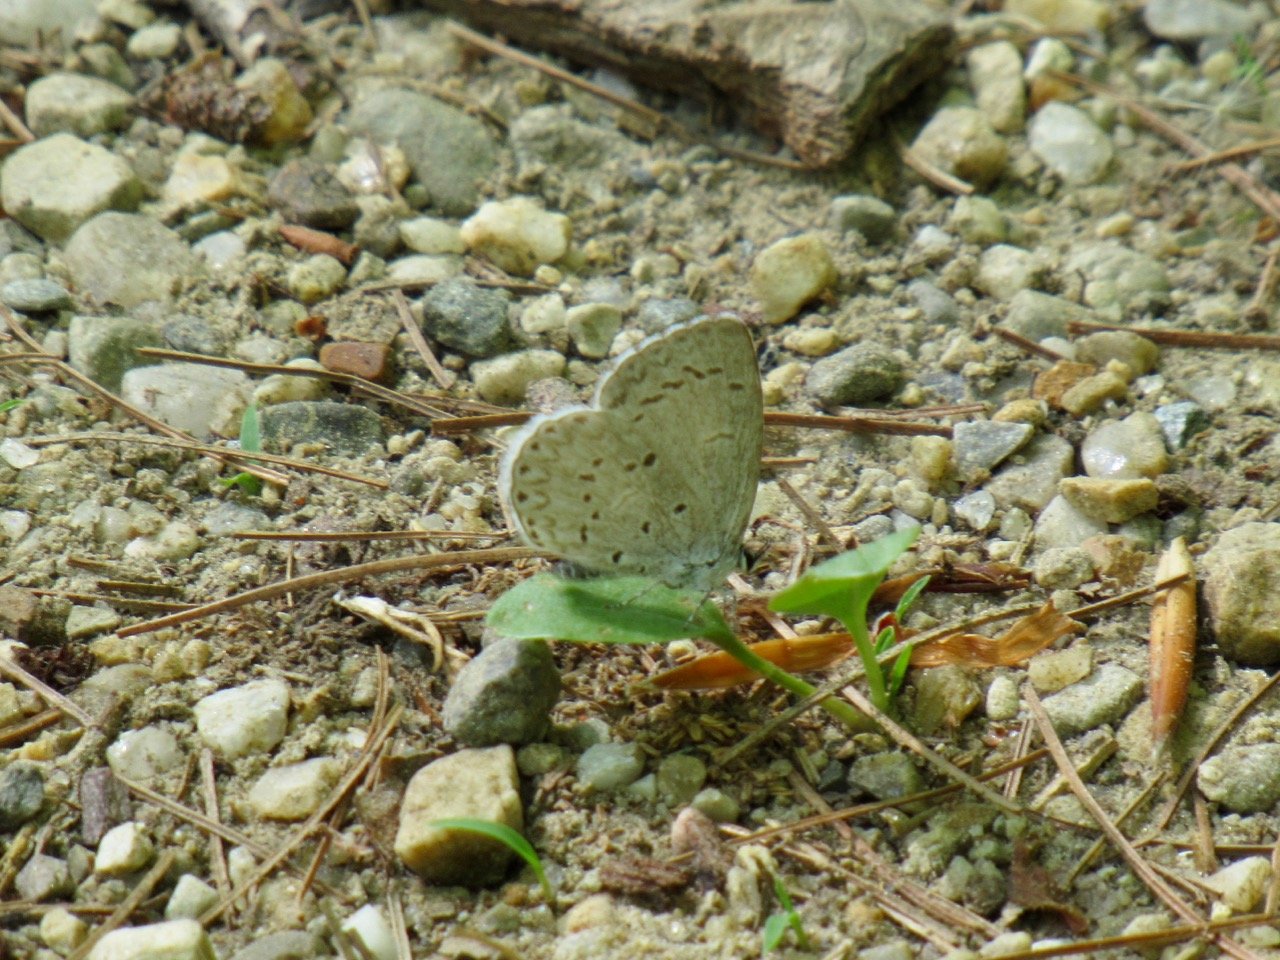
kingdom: Animalia
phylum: Arthropoda
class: Insecta
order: Lepidoptera
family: Lycaenidae
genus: Celastrina
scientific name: Celastrina lucia
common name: Northern Spring Azure
